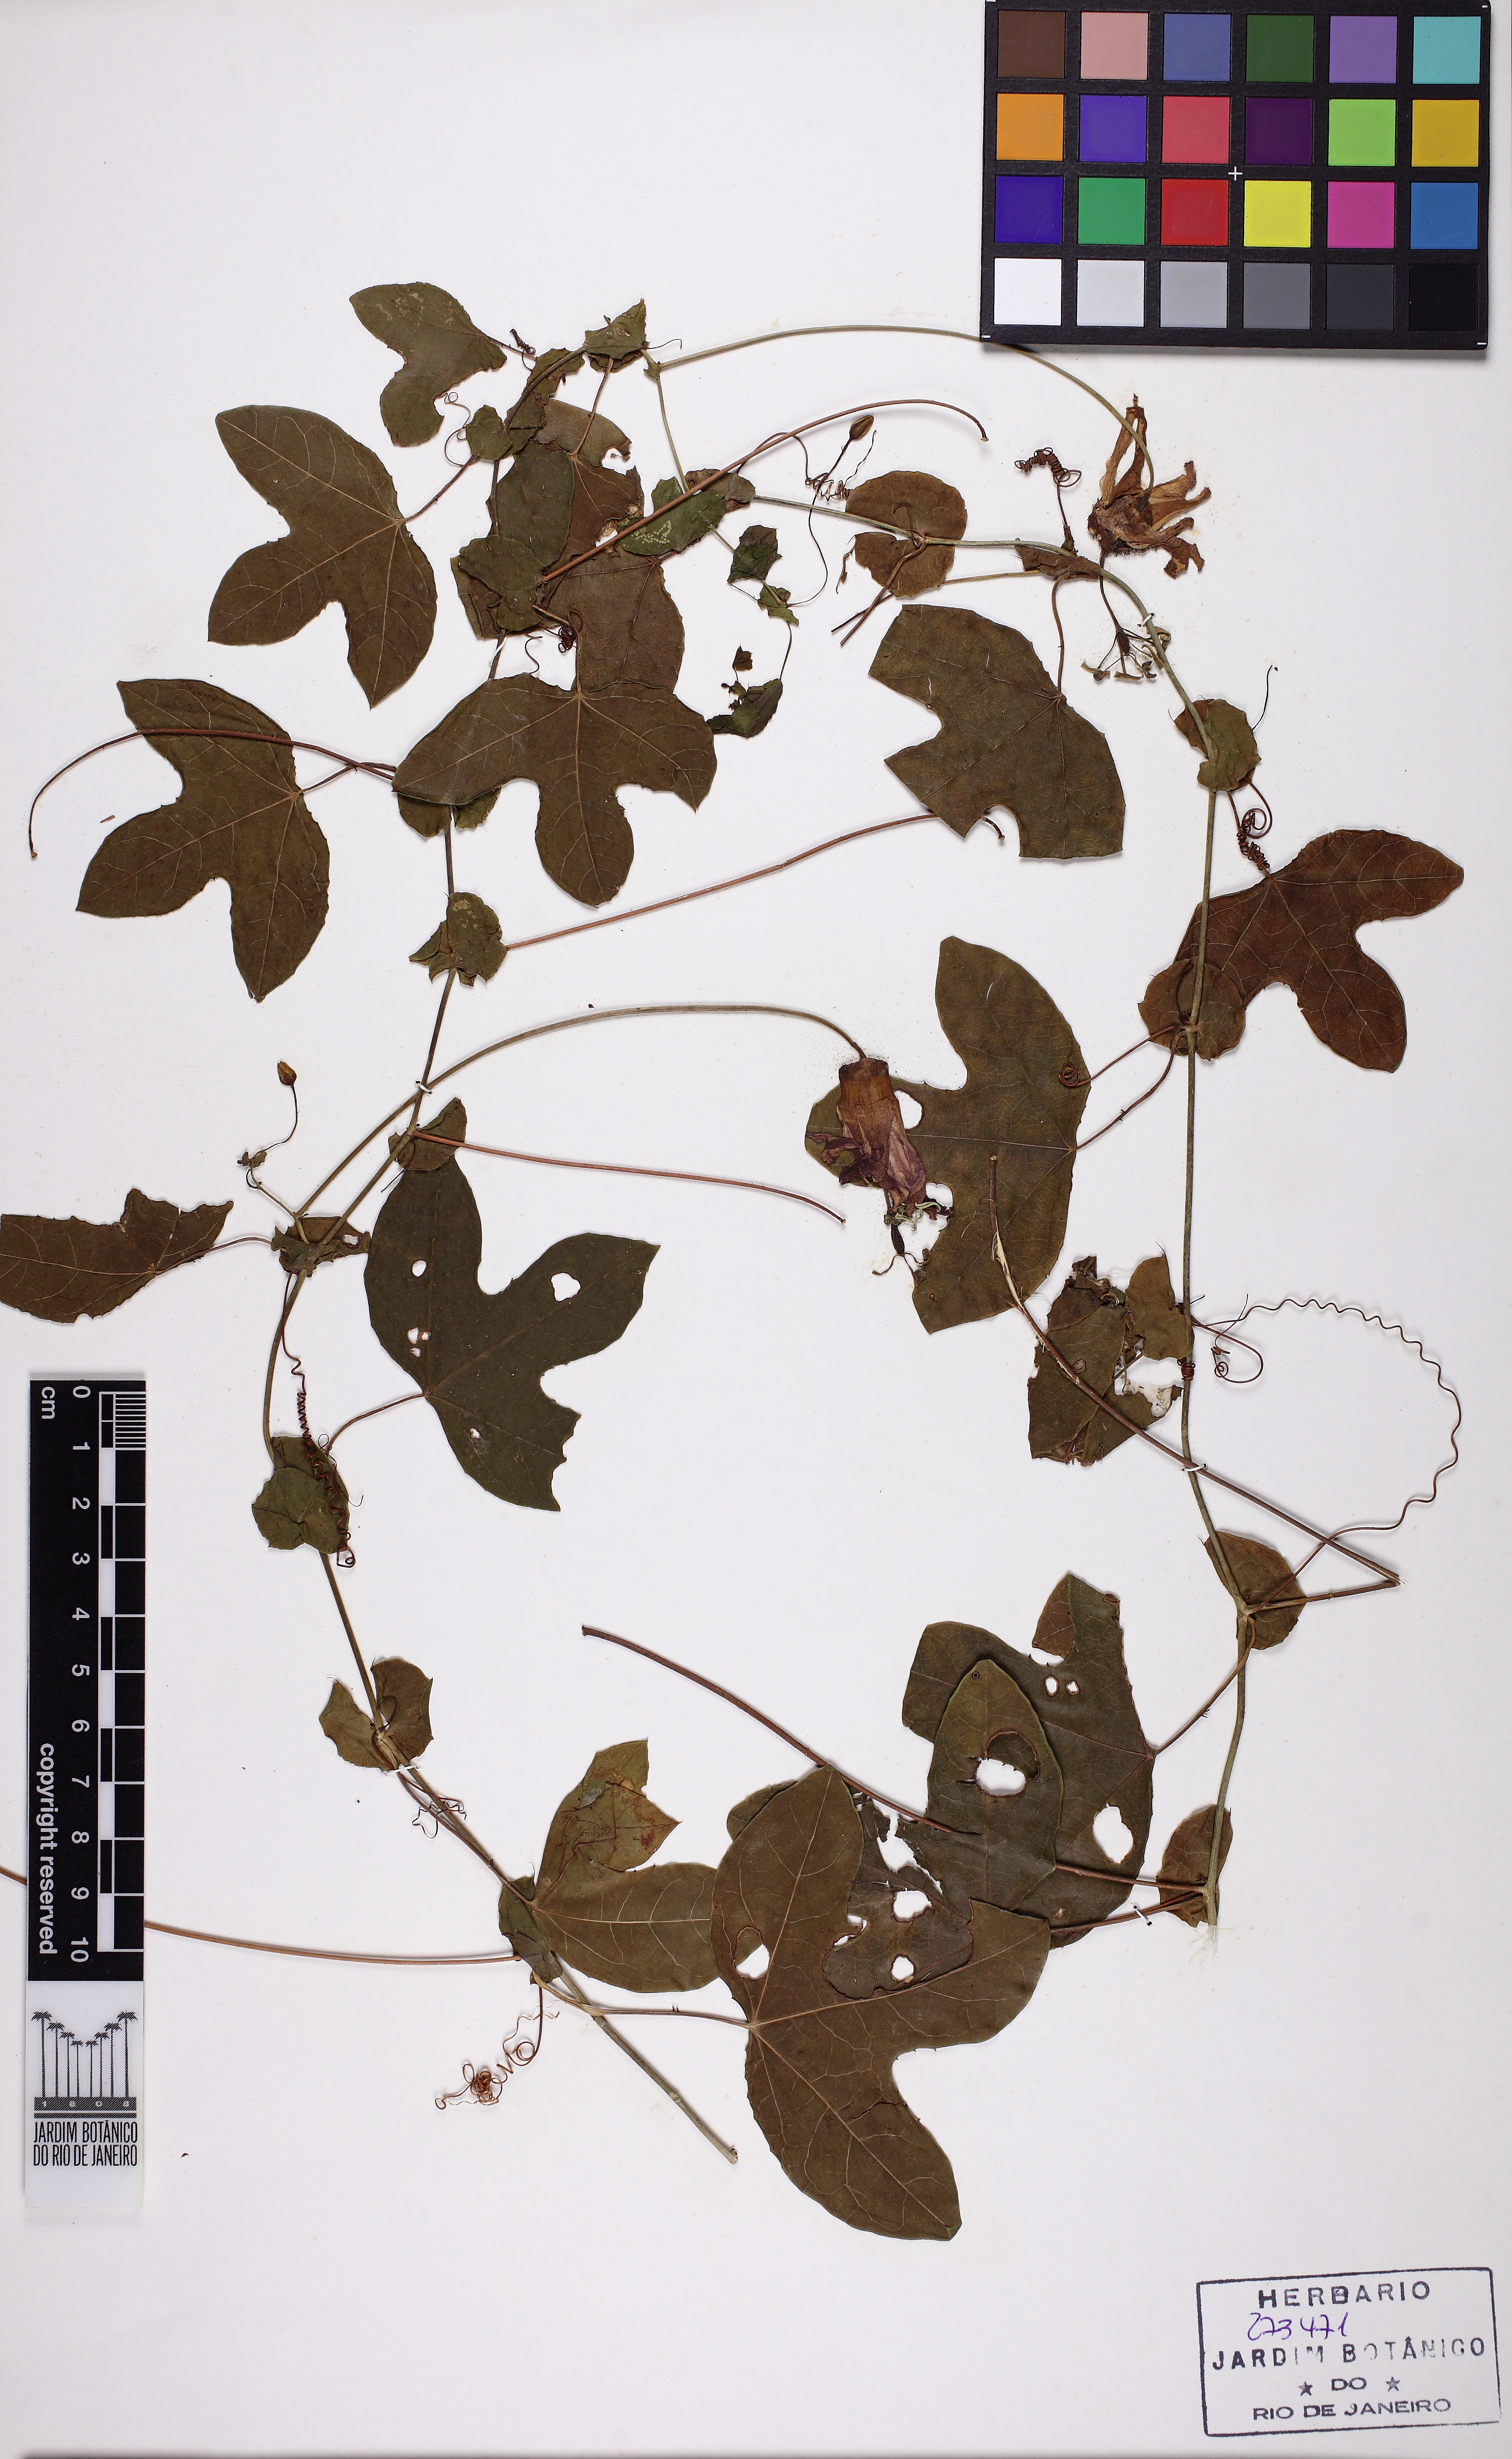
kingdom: Plantae
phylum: Tracheophyta
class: Magnoliopsida
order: Malpighiales
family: Passifloraceae
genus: Passiflora
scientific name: Passiflora kermesina
